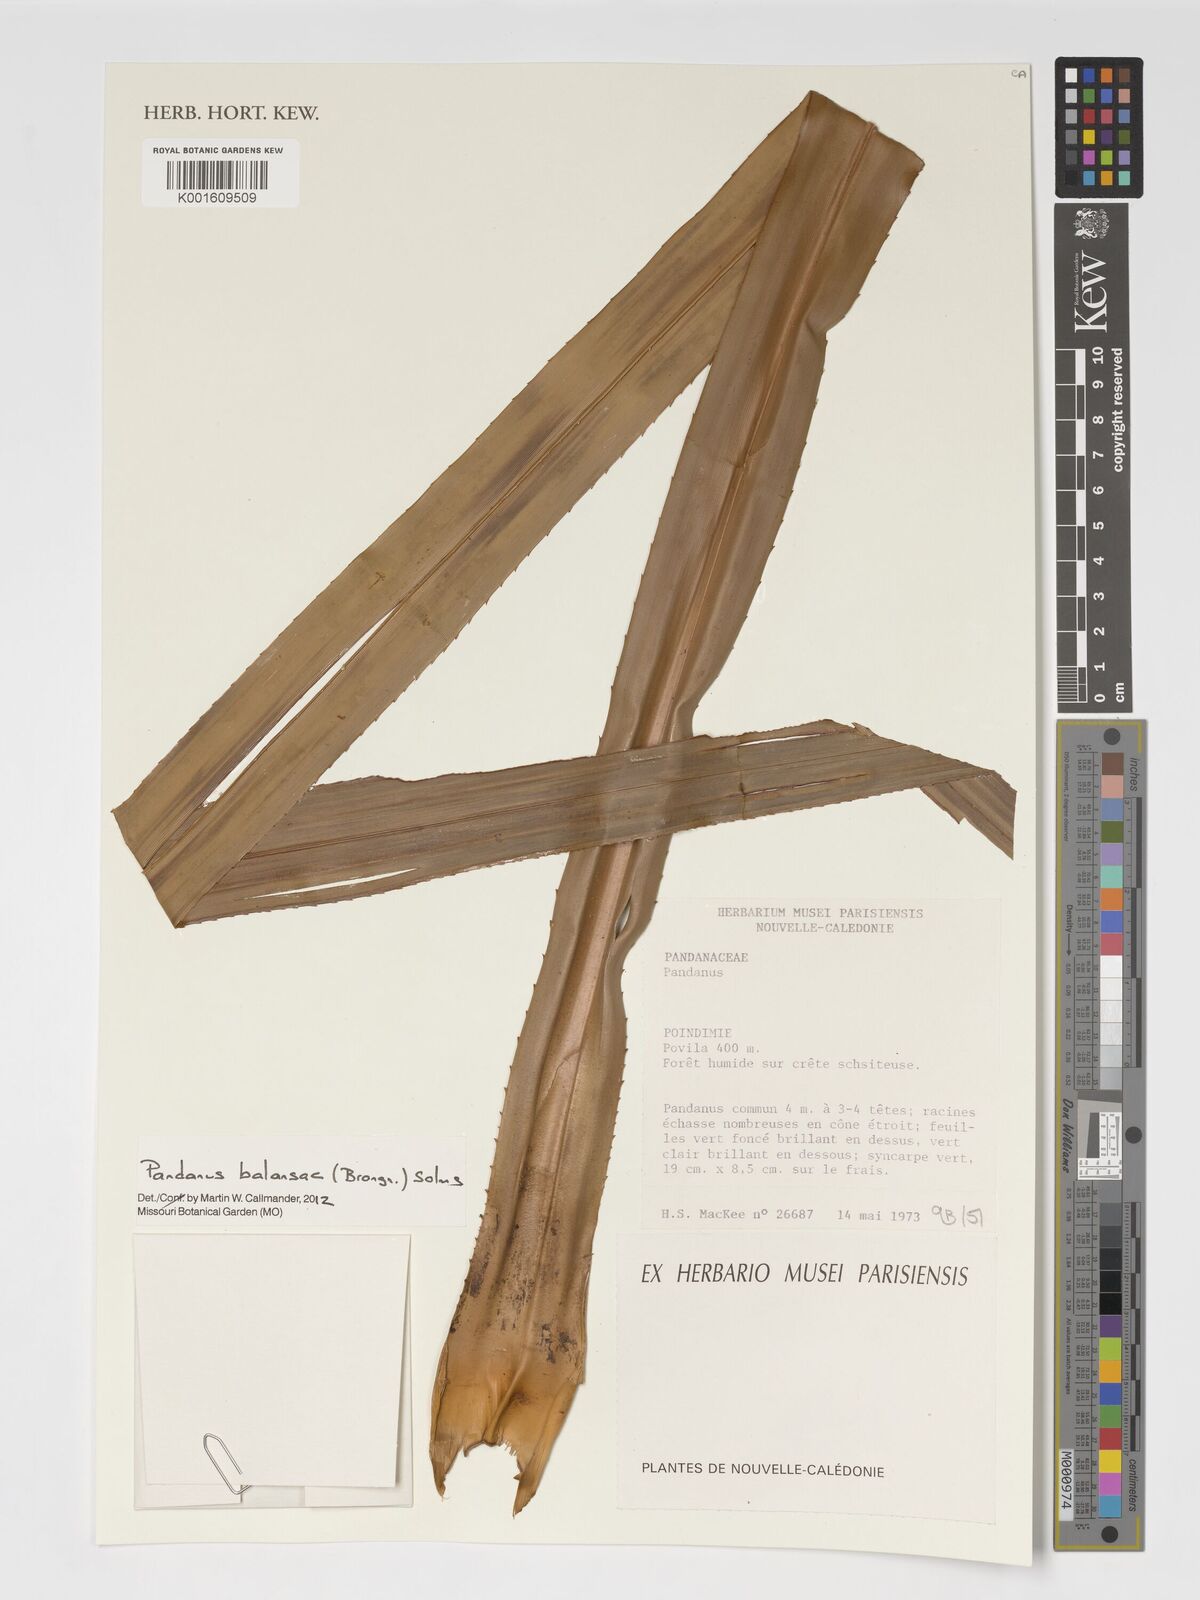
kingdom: Plantae
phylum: Tracheophyta
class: Liliopsida
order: Pandanales
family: Pandanaceae
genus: Pandanus
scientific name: Pandanus balansae
